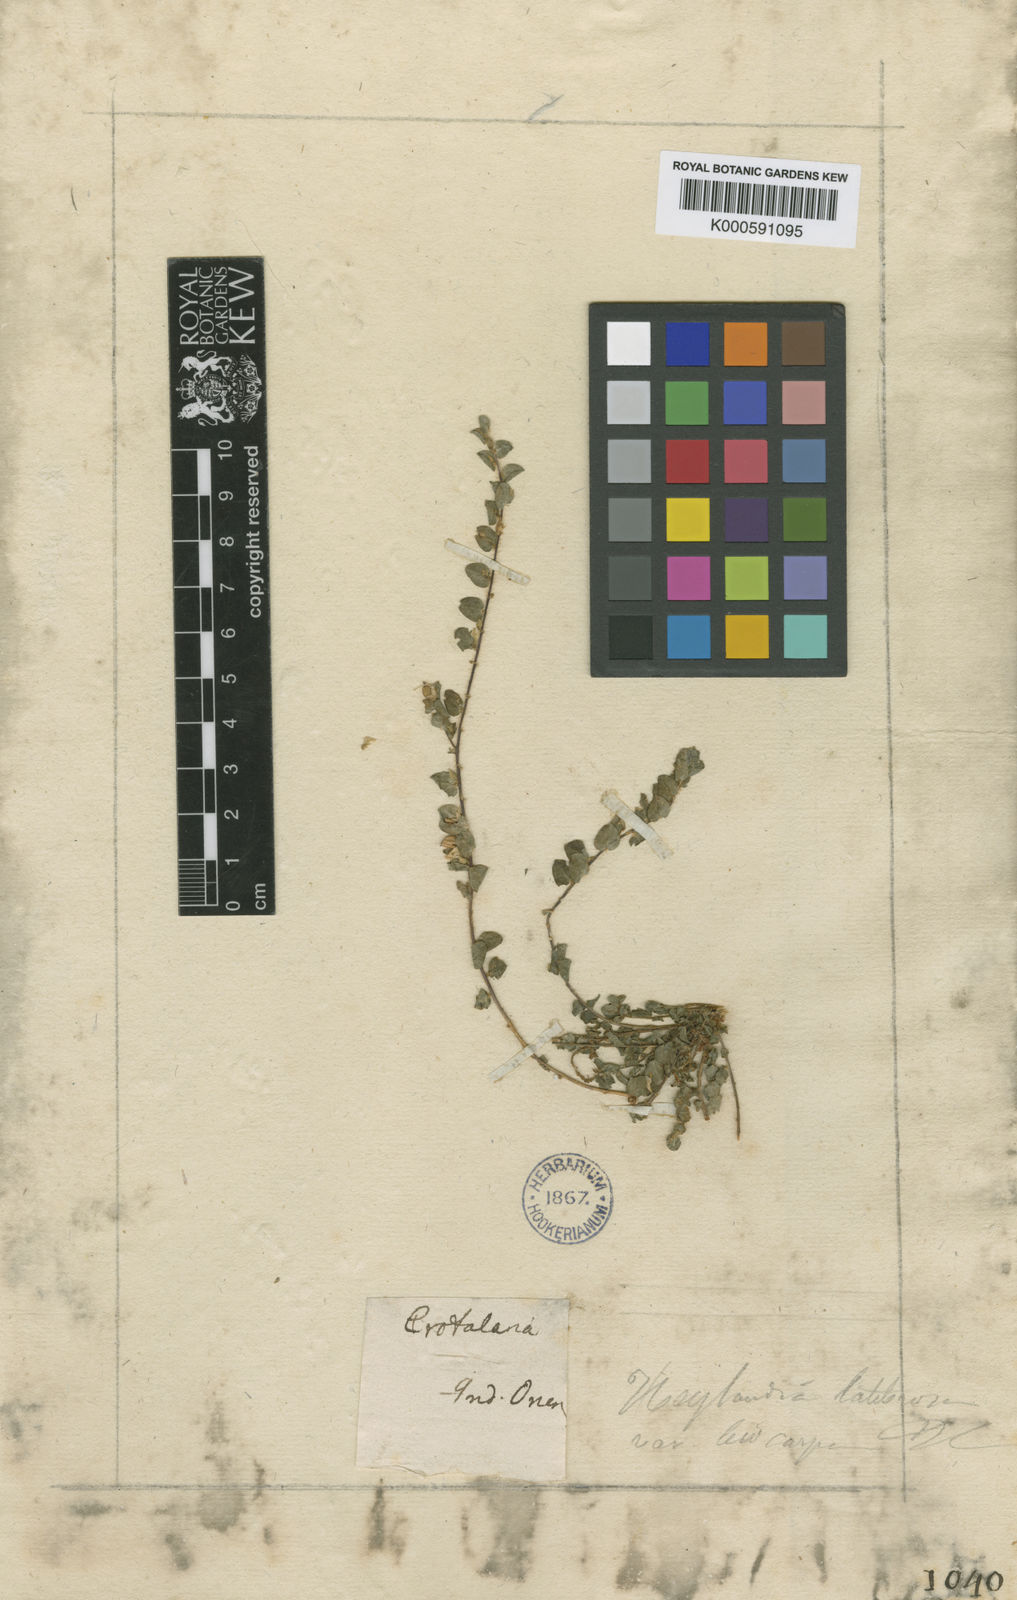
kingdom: Plantae
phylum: Tracheophyta
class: Magnoliopsida
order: Fabales
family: Fabaceae
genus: Crotalaria
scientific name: Crotalaria hirta
